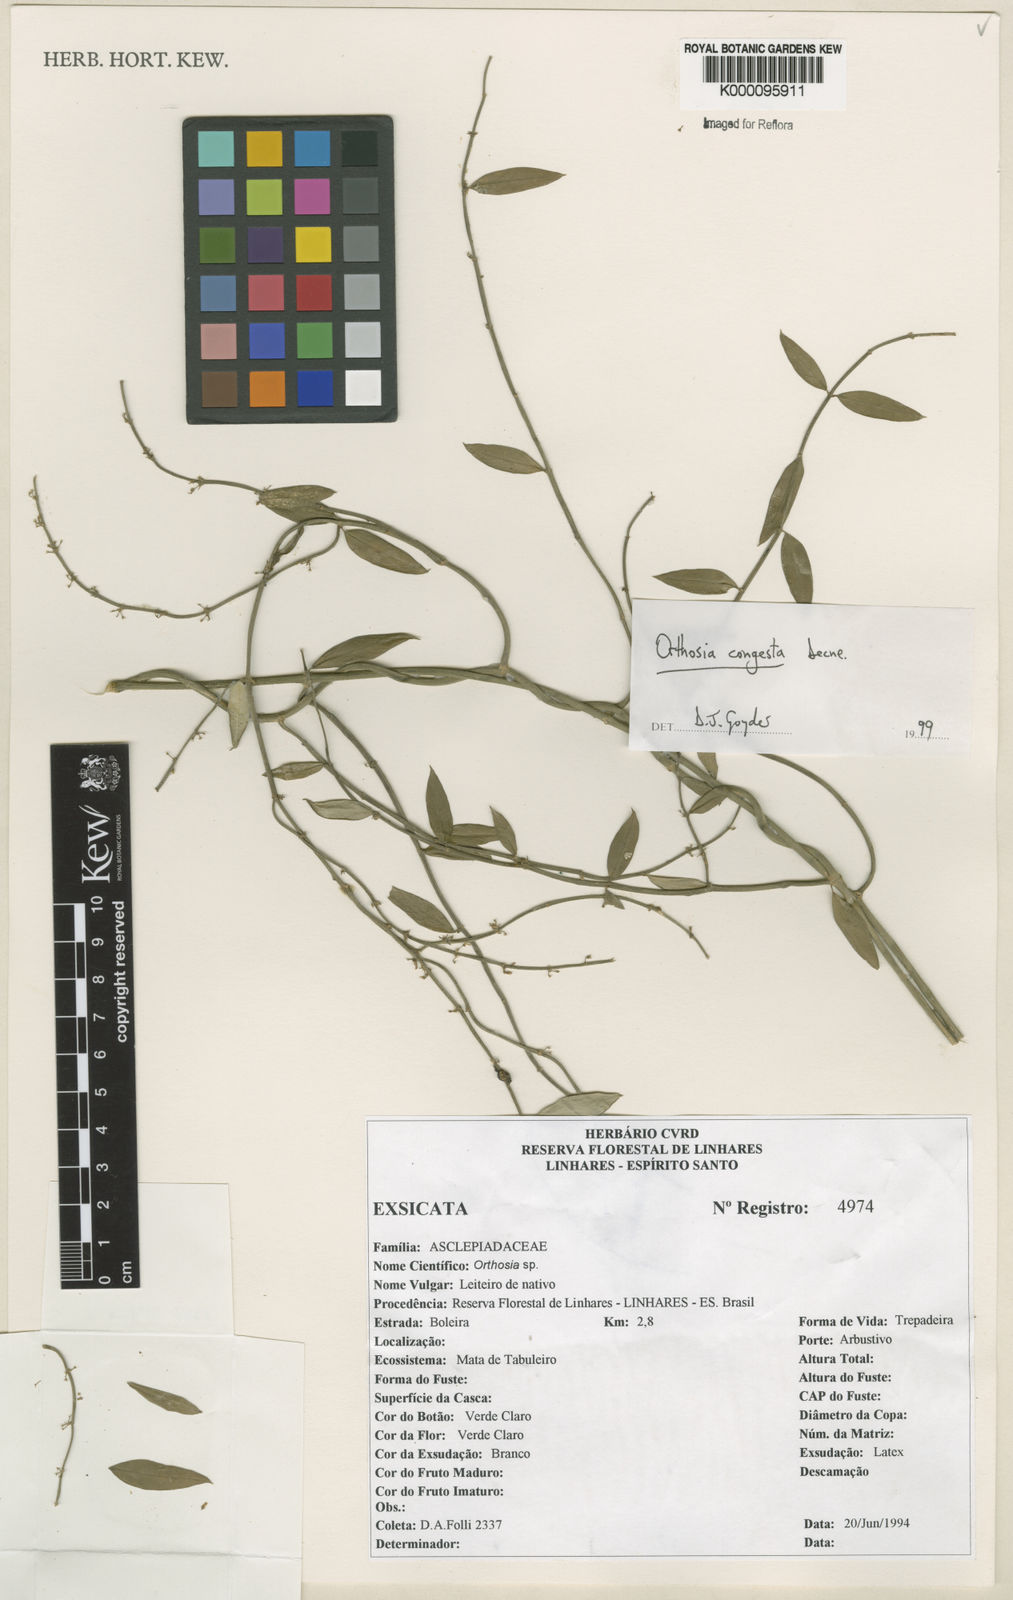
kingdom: Plantae
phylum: Tracheophyta
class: Magnoliopsida
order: Gentianales
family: Apocynaceae
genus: Orthosia
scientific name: Orthosia congesta
